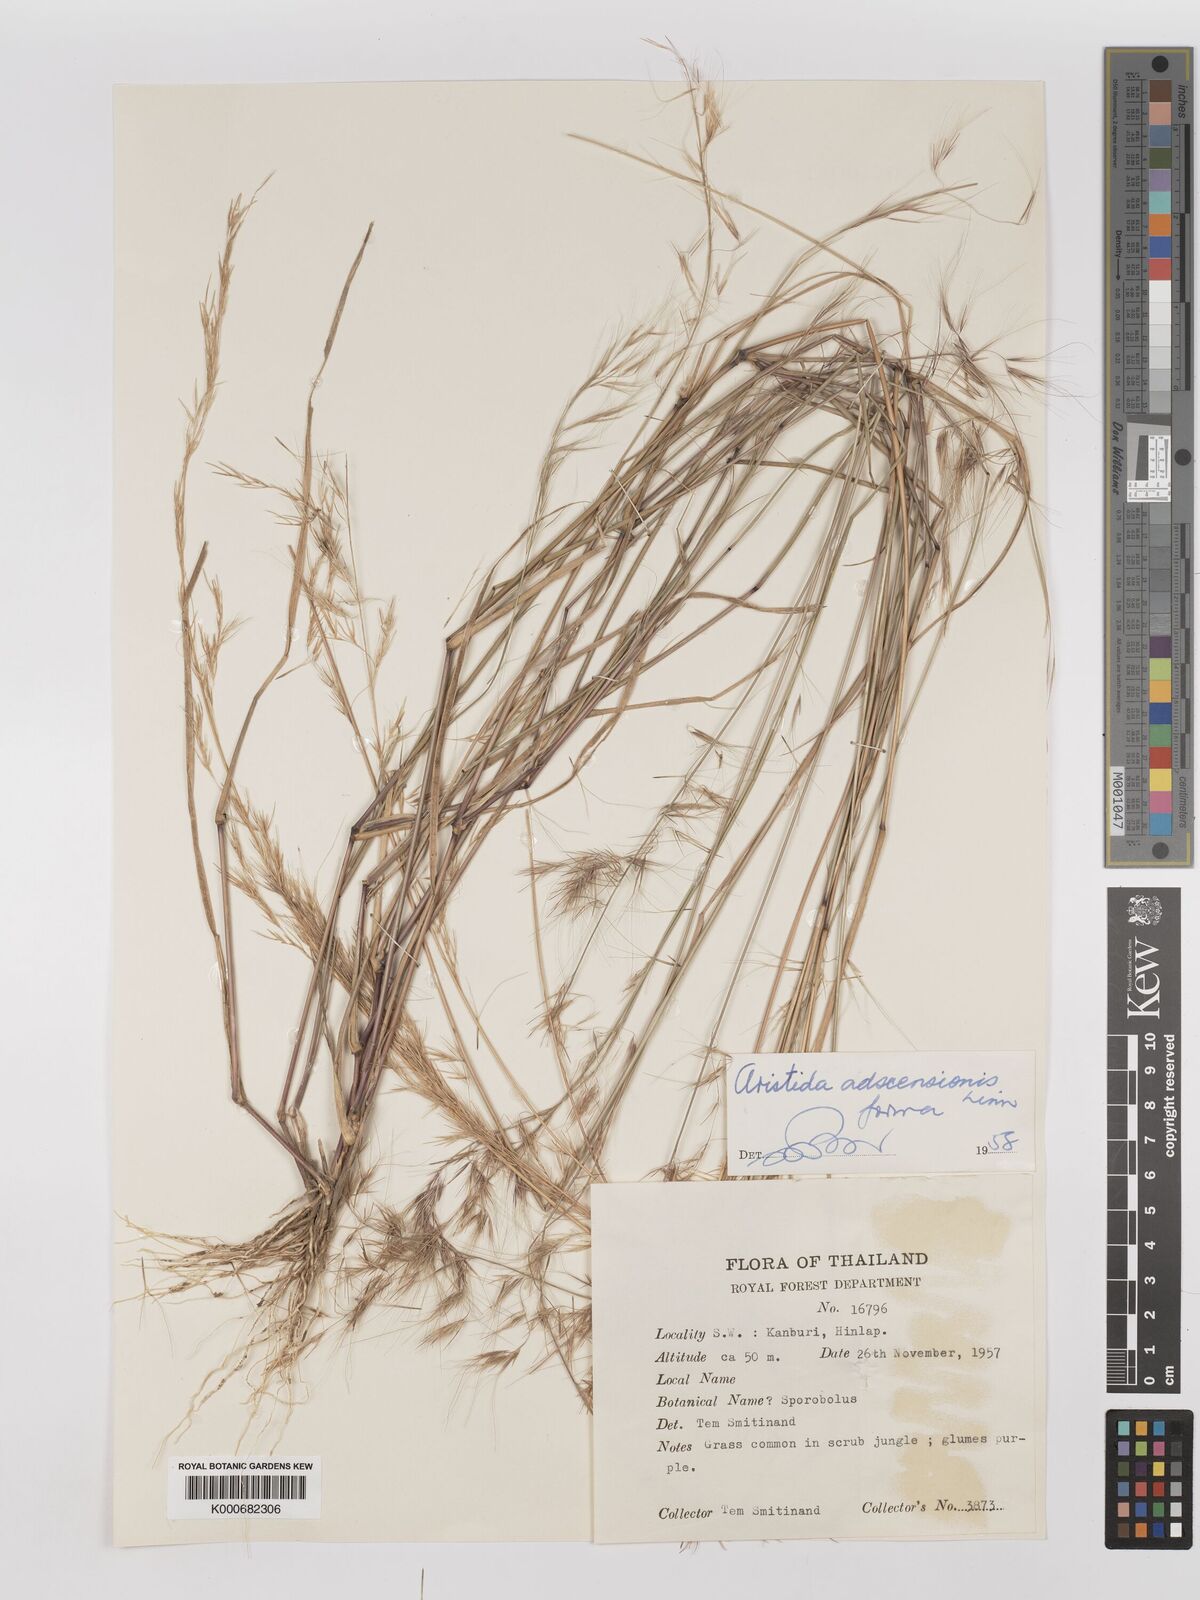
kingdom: Plantae
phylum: Tracheophyta
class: Liliopsida
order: Poales
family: Poaceae
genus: Aristida
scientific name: Aristida adscensionis
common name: Sixweeks threeawn
